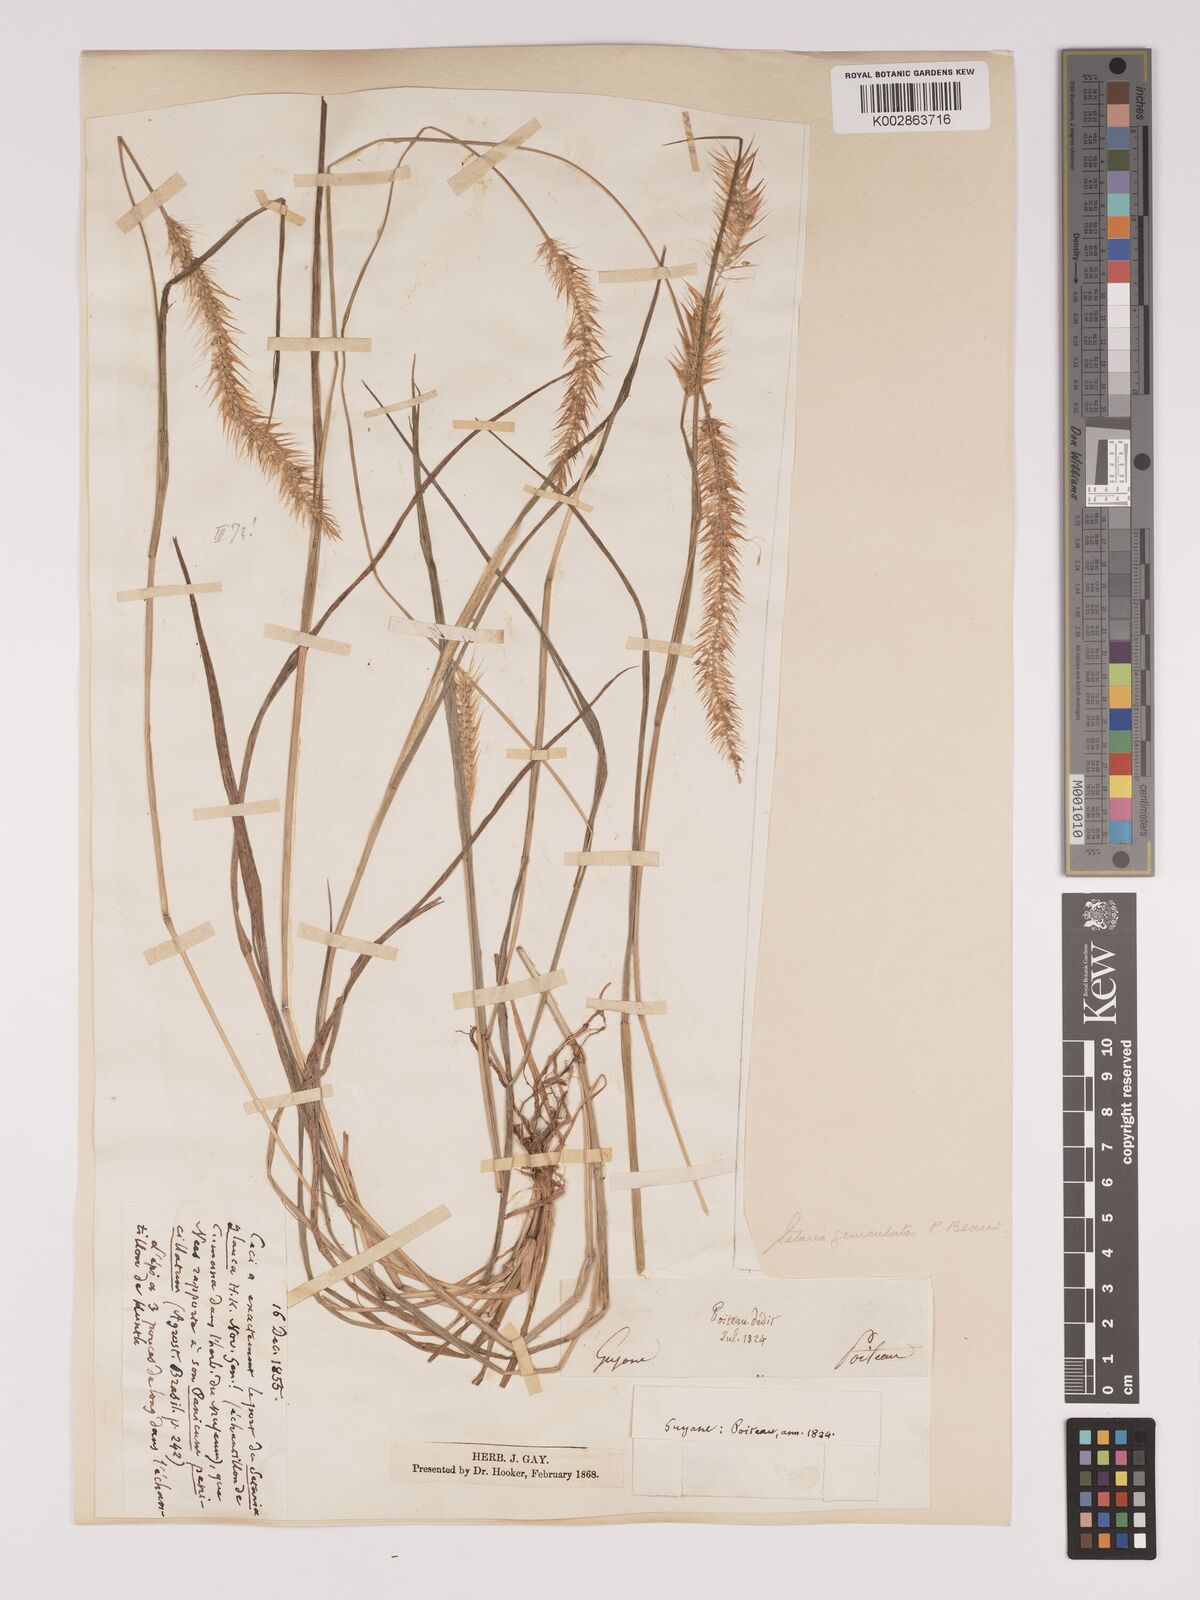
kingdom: Plantae
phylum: Tracheophyta
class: Liliopsida
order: Poales
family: Poaceae
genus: Setaria
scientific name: Setaria parviflora
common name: Knotroot bristle-grass
